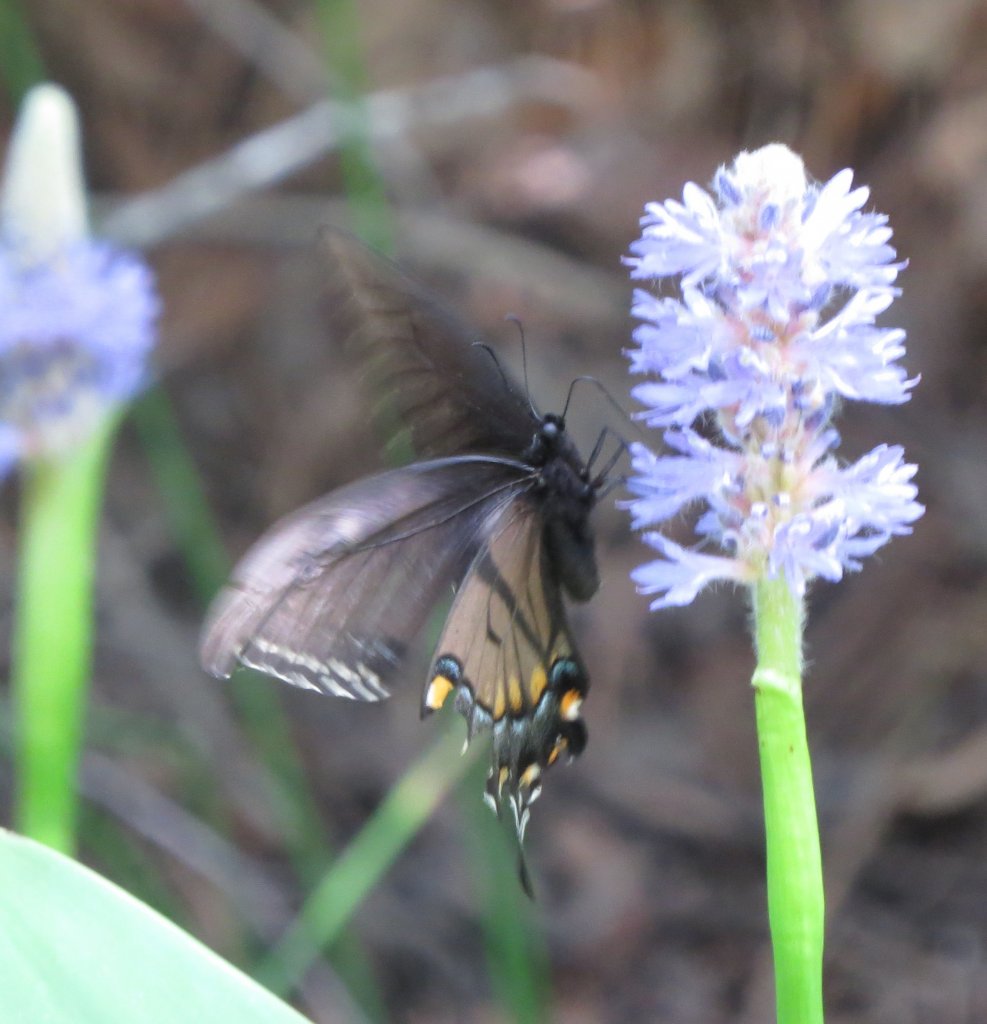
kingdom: Animalia
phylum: Arthropoda
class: Insecta
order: Lepidoptera
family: Papilionidae
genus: Pterourus
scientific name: Pterourus glaucus
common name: Eastern Tiger Swallowtail
